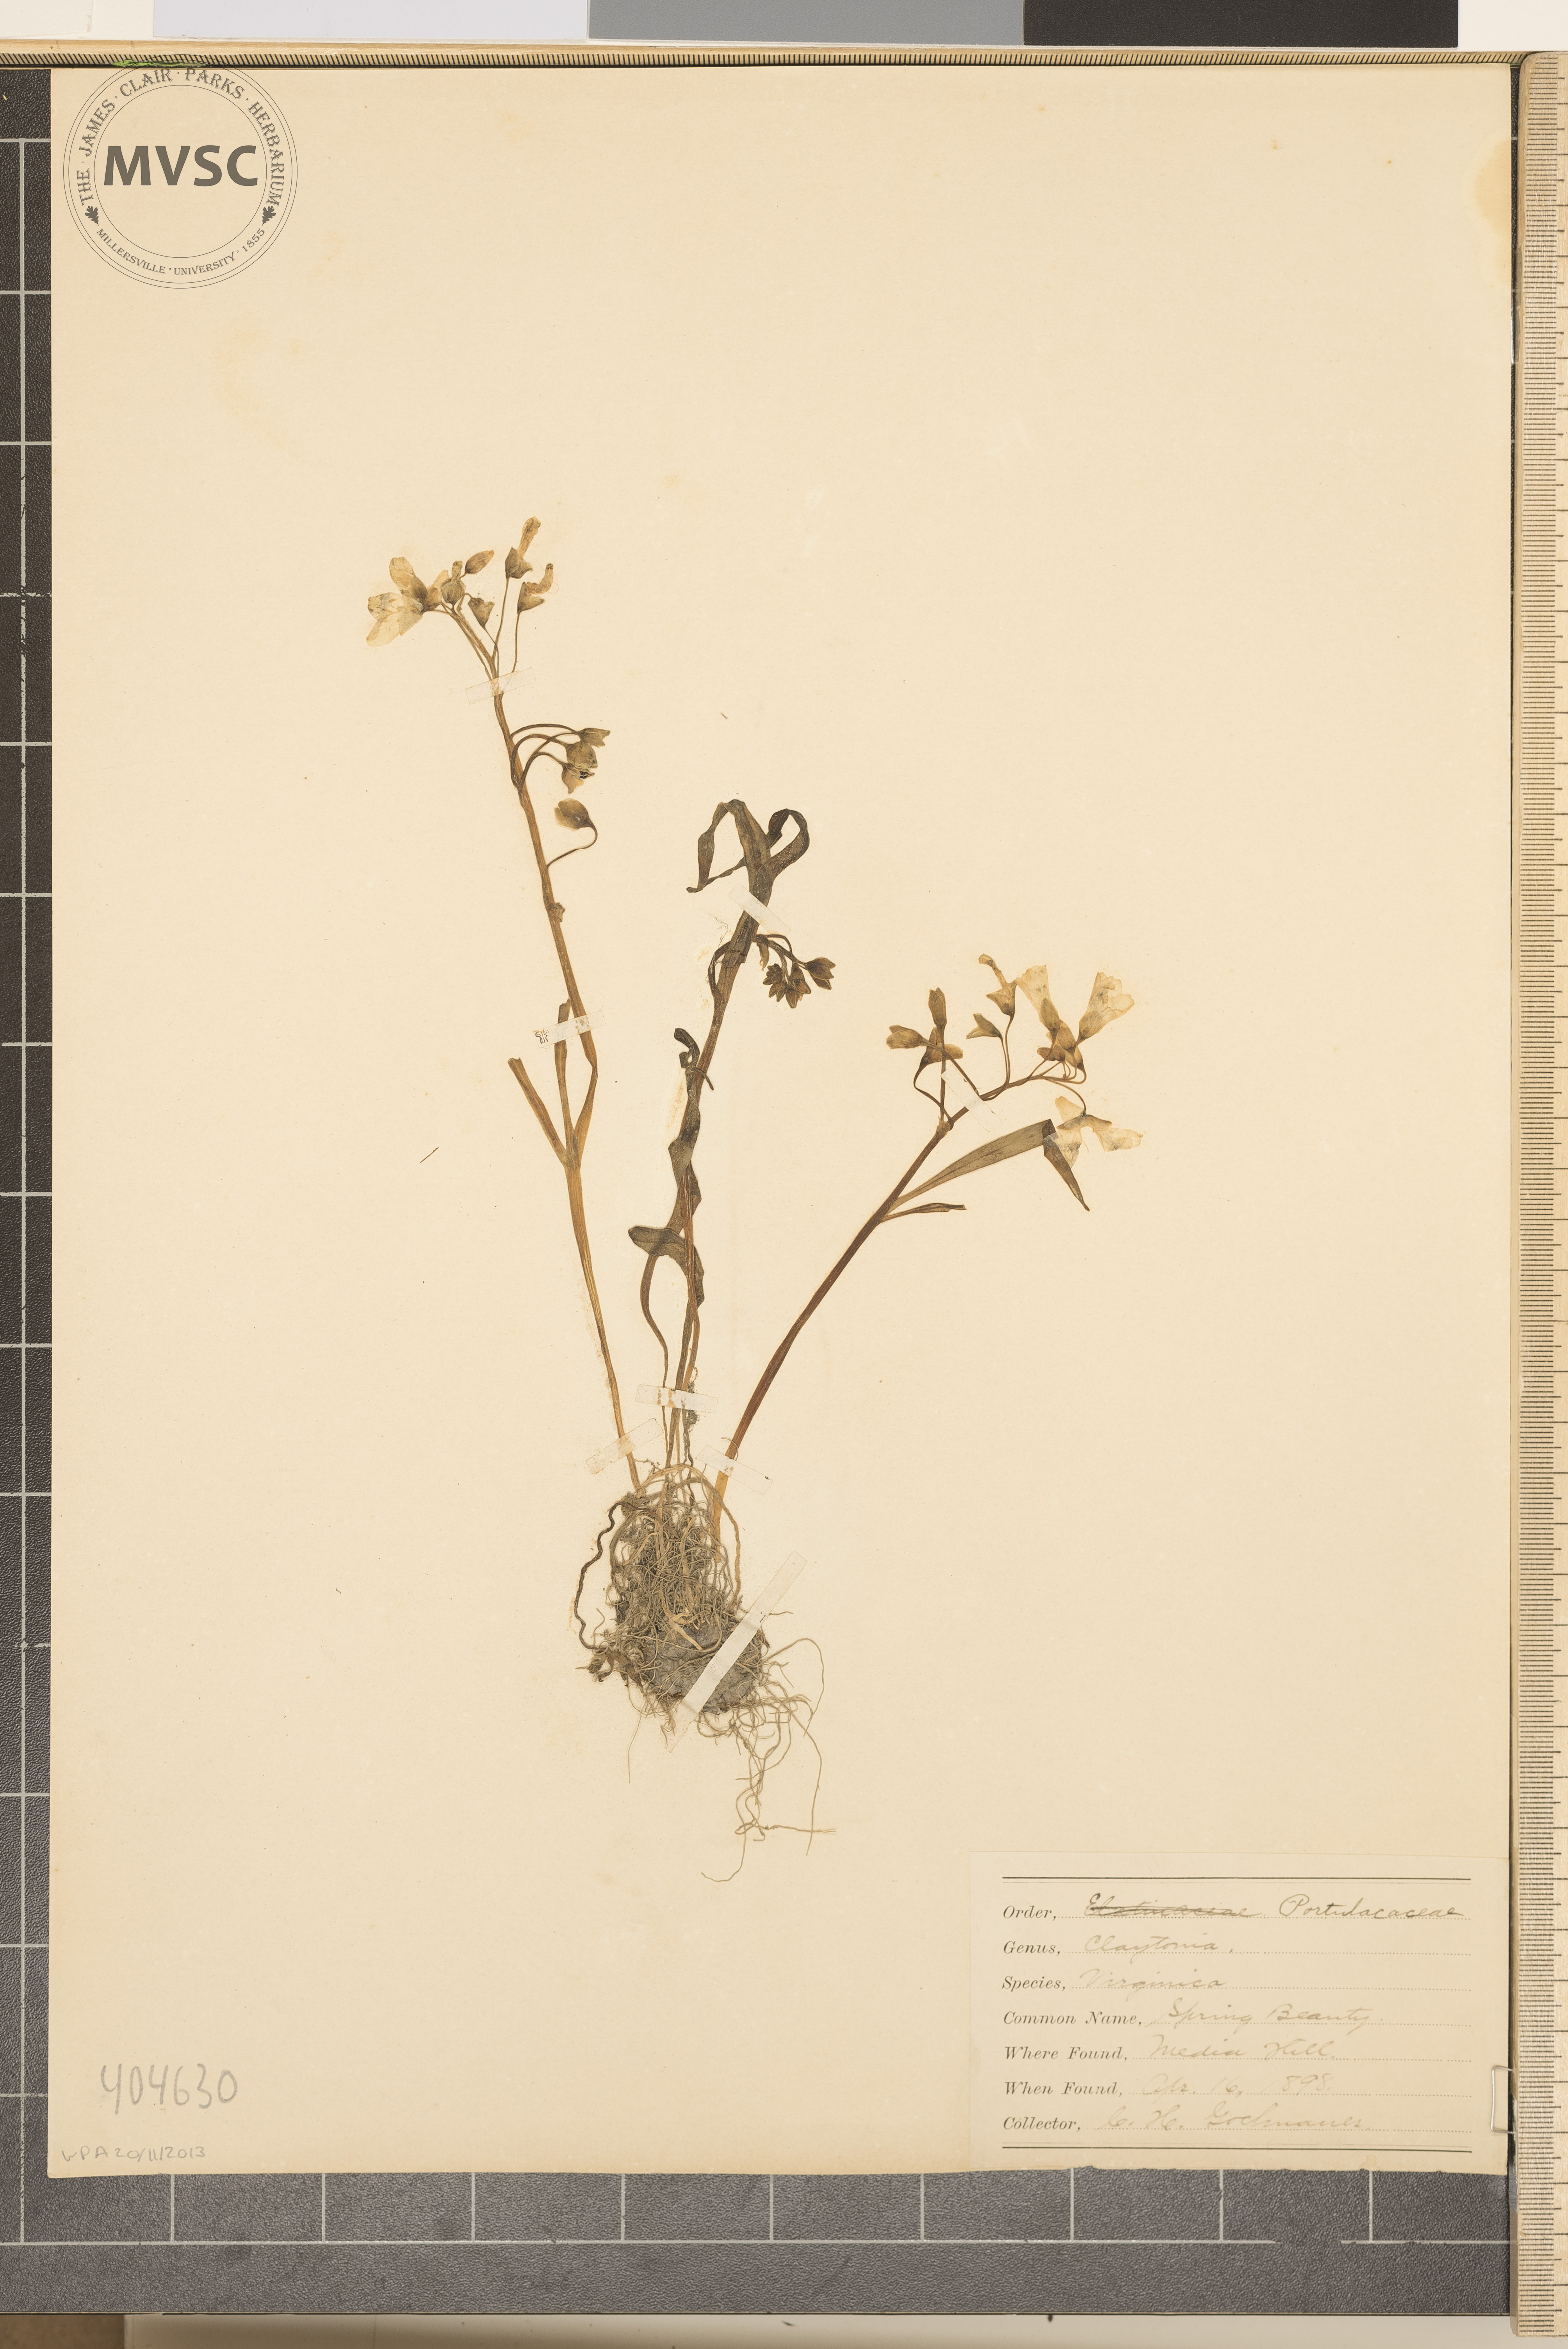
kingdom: Plantae
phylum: Tracheophyta
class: Magnoliopsida
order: Caryophyllales
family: Montiaceae
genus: Claytonia
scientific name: Claytonia virginica
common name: Spring Beauty
